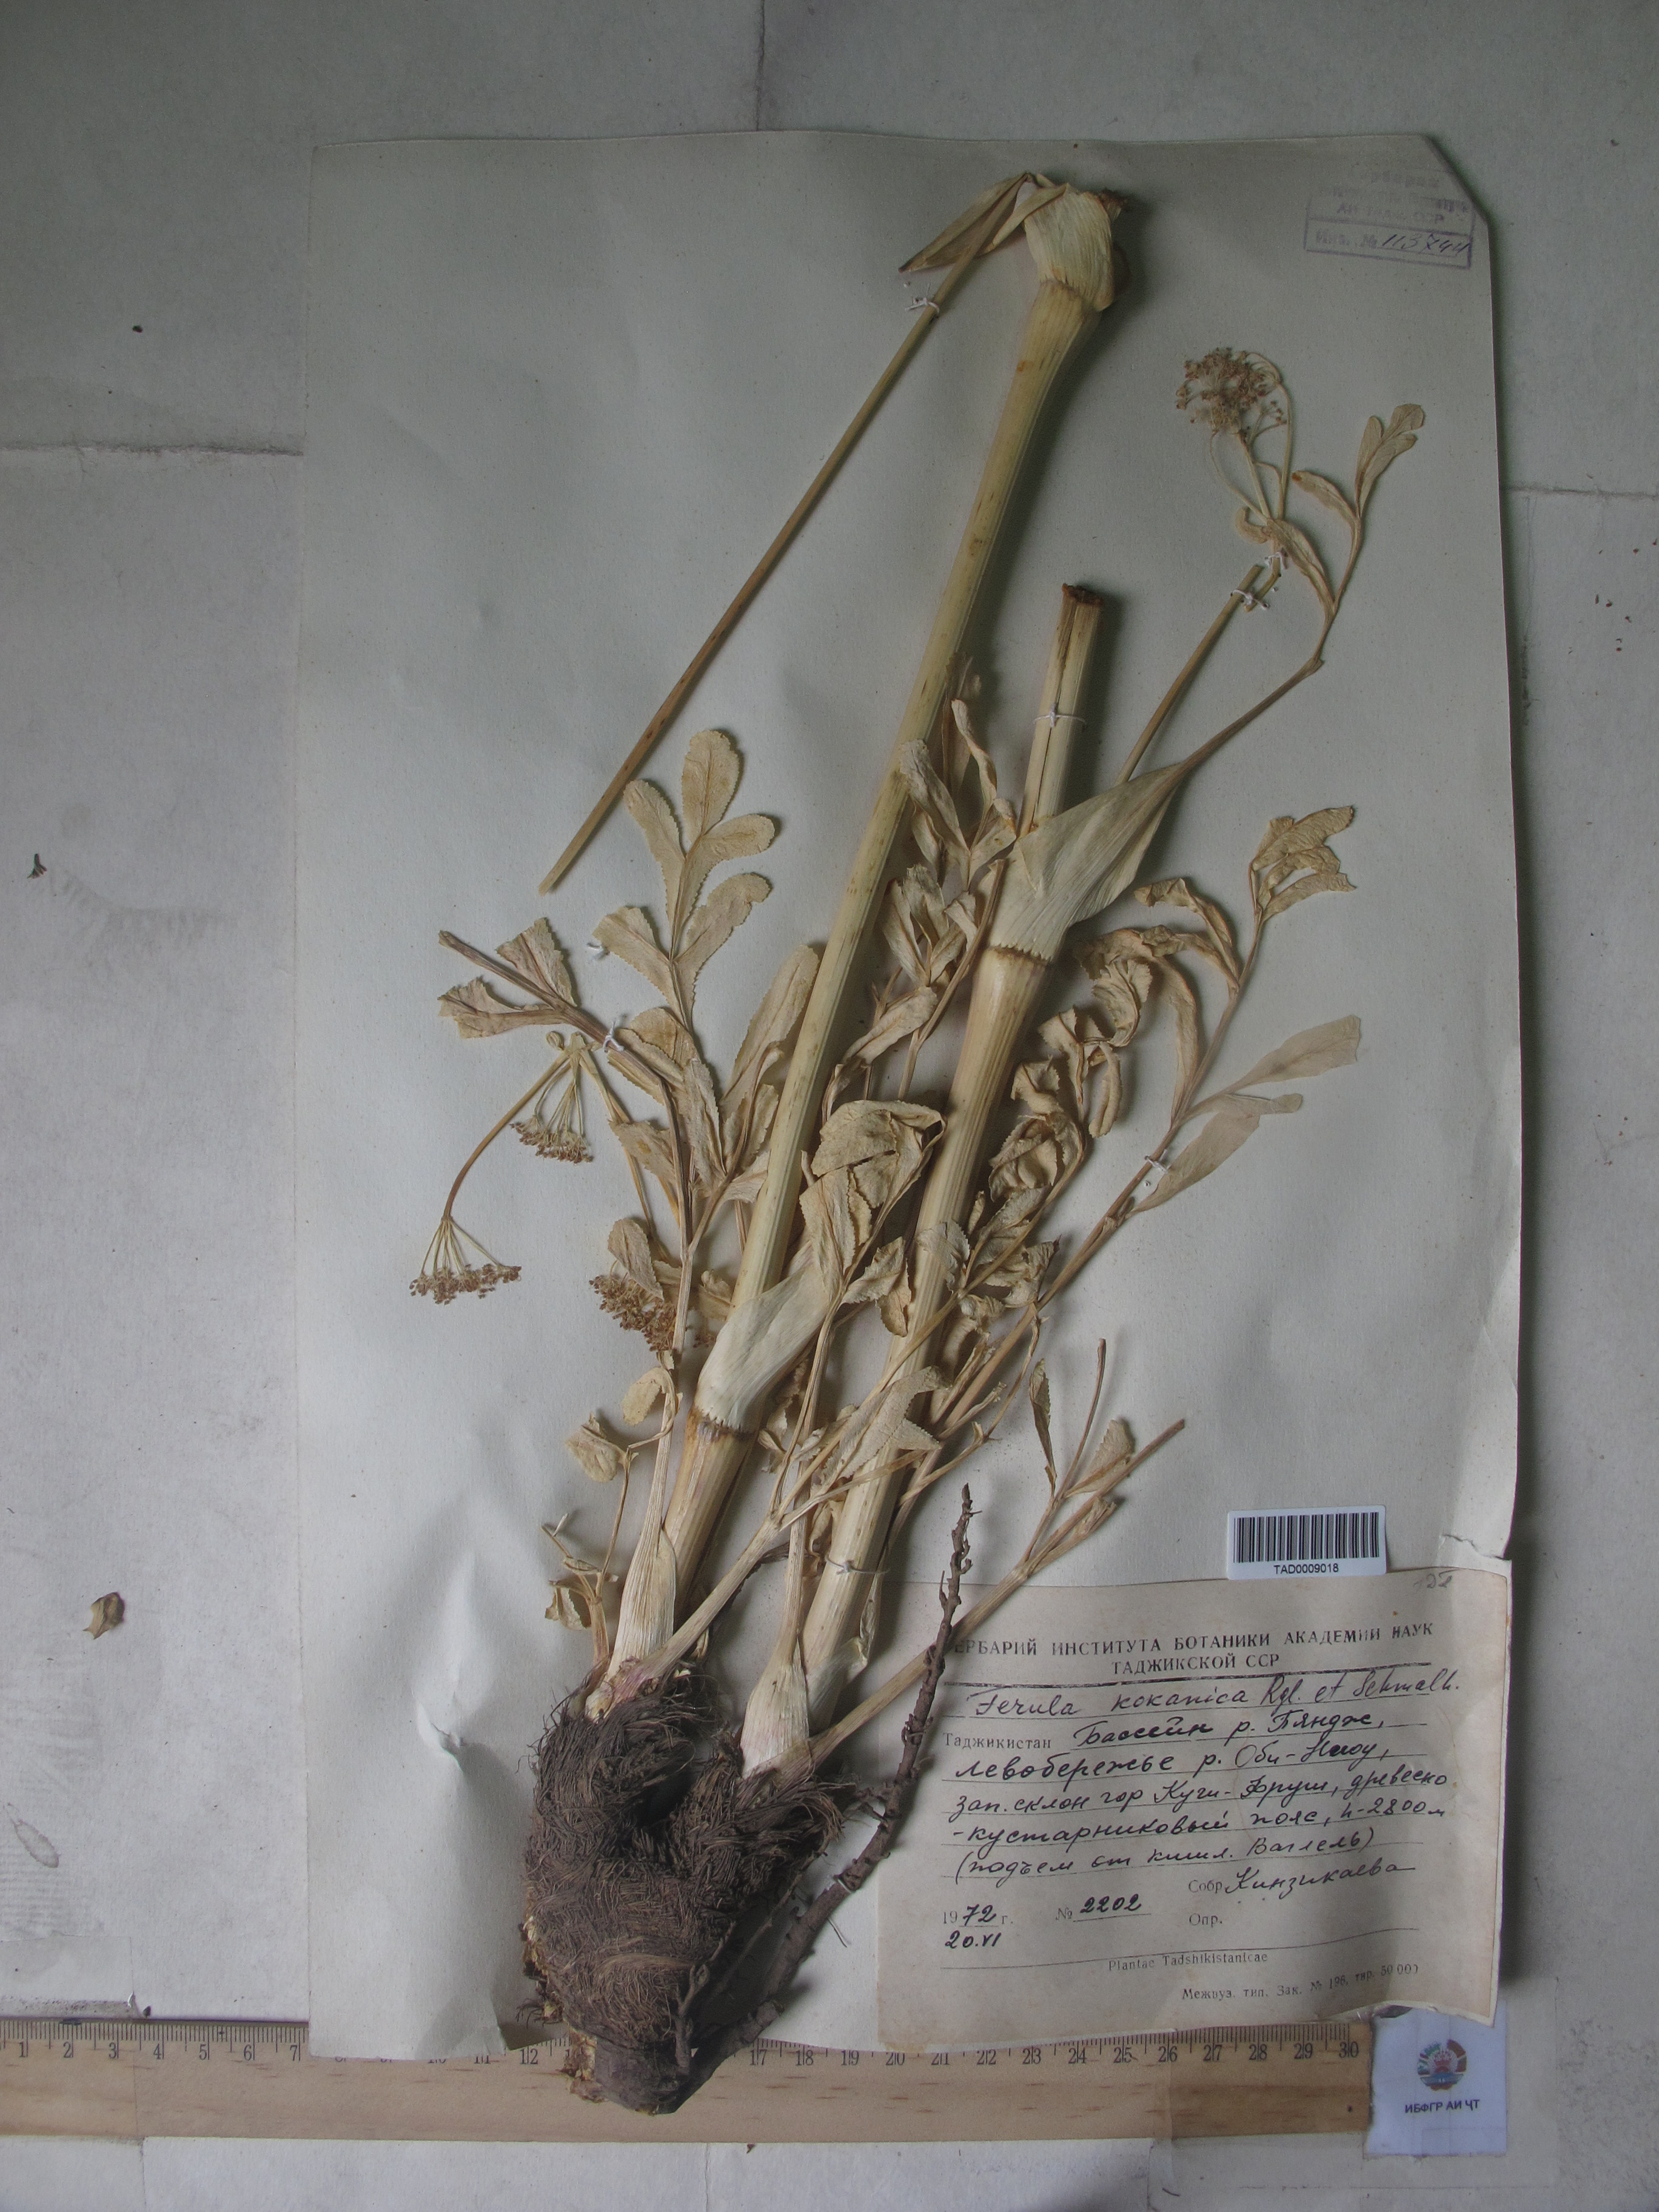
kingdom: Plantae
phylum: Tracheophyta
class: Magnoliopsida
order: Apiales
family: Apiaceae
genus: Ferula
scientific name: Ferula kokanica
